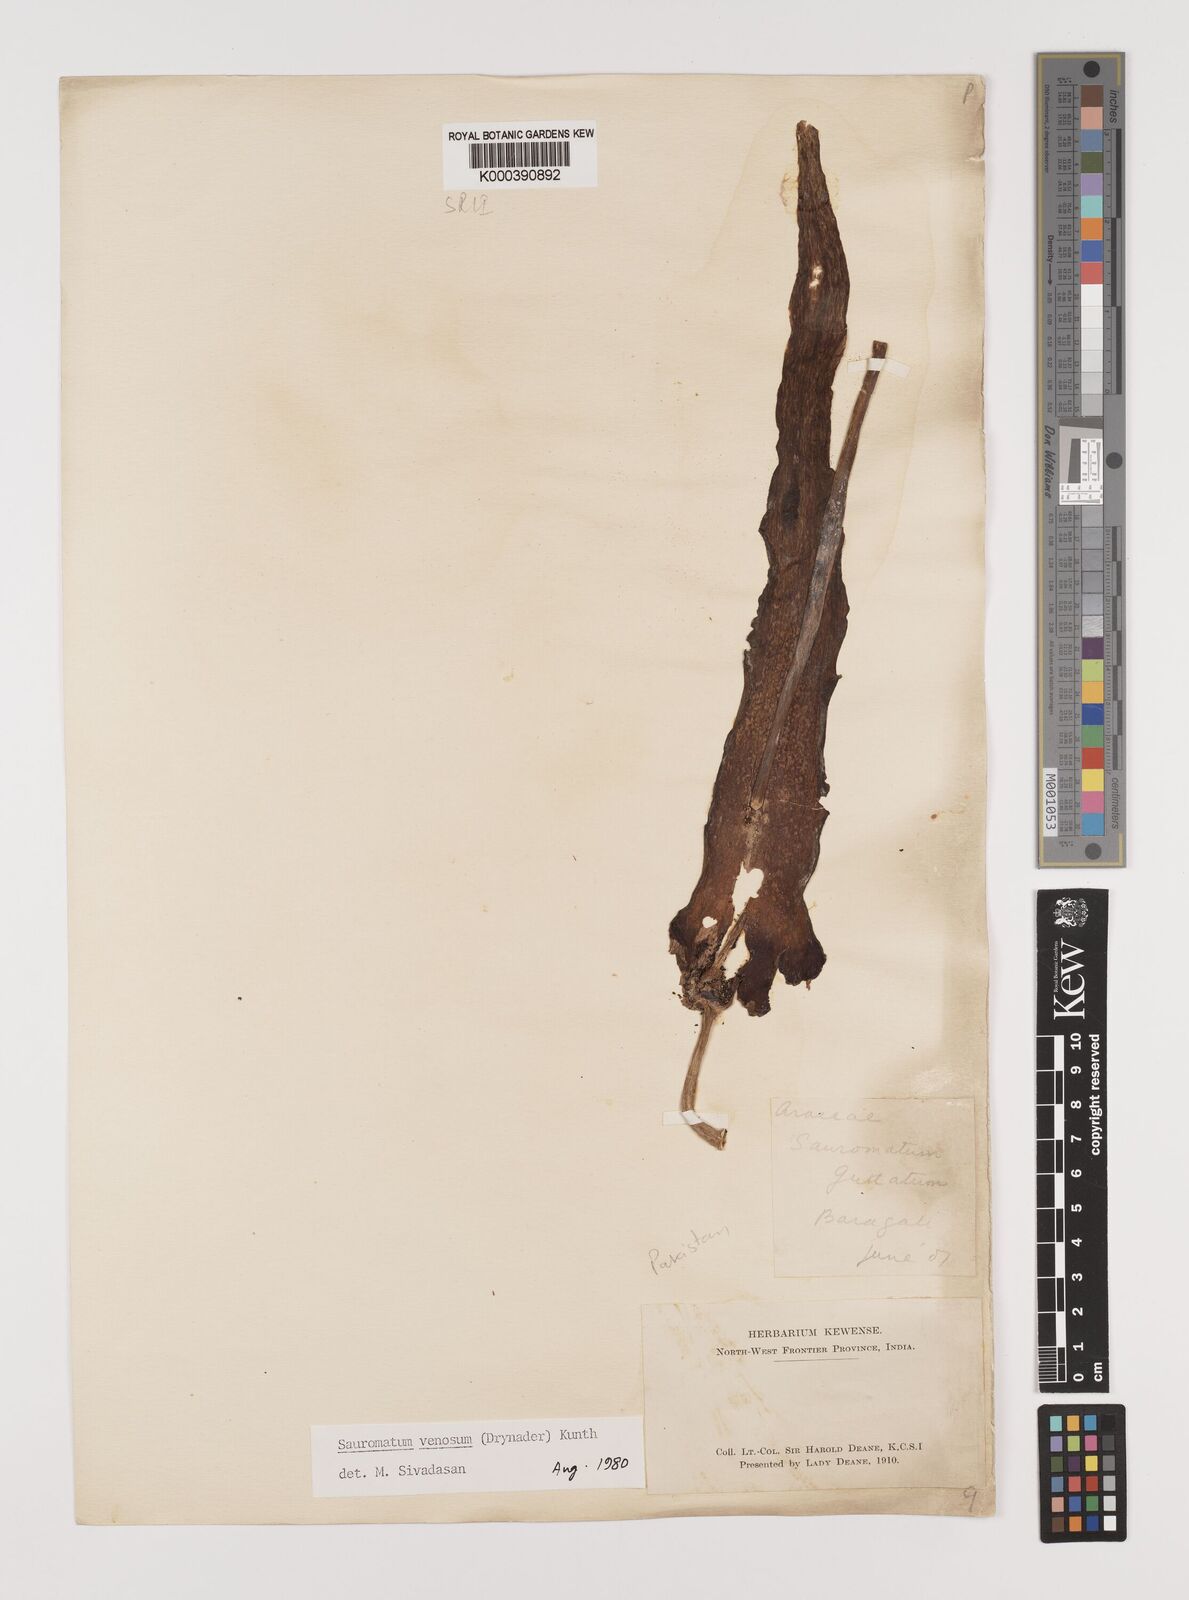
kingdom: Plantae
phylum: Tracheophyta
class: Liliopsida
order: Alismatales
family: Araceae
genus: Sauromatum
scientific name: Sauromatum venosum
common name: Voodoo lily
